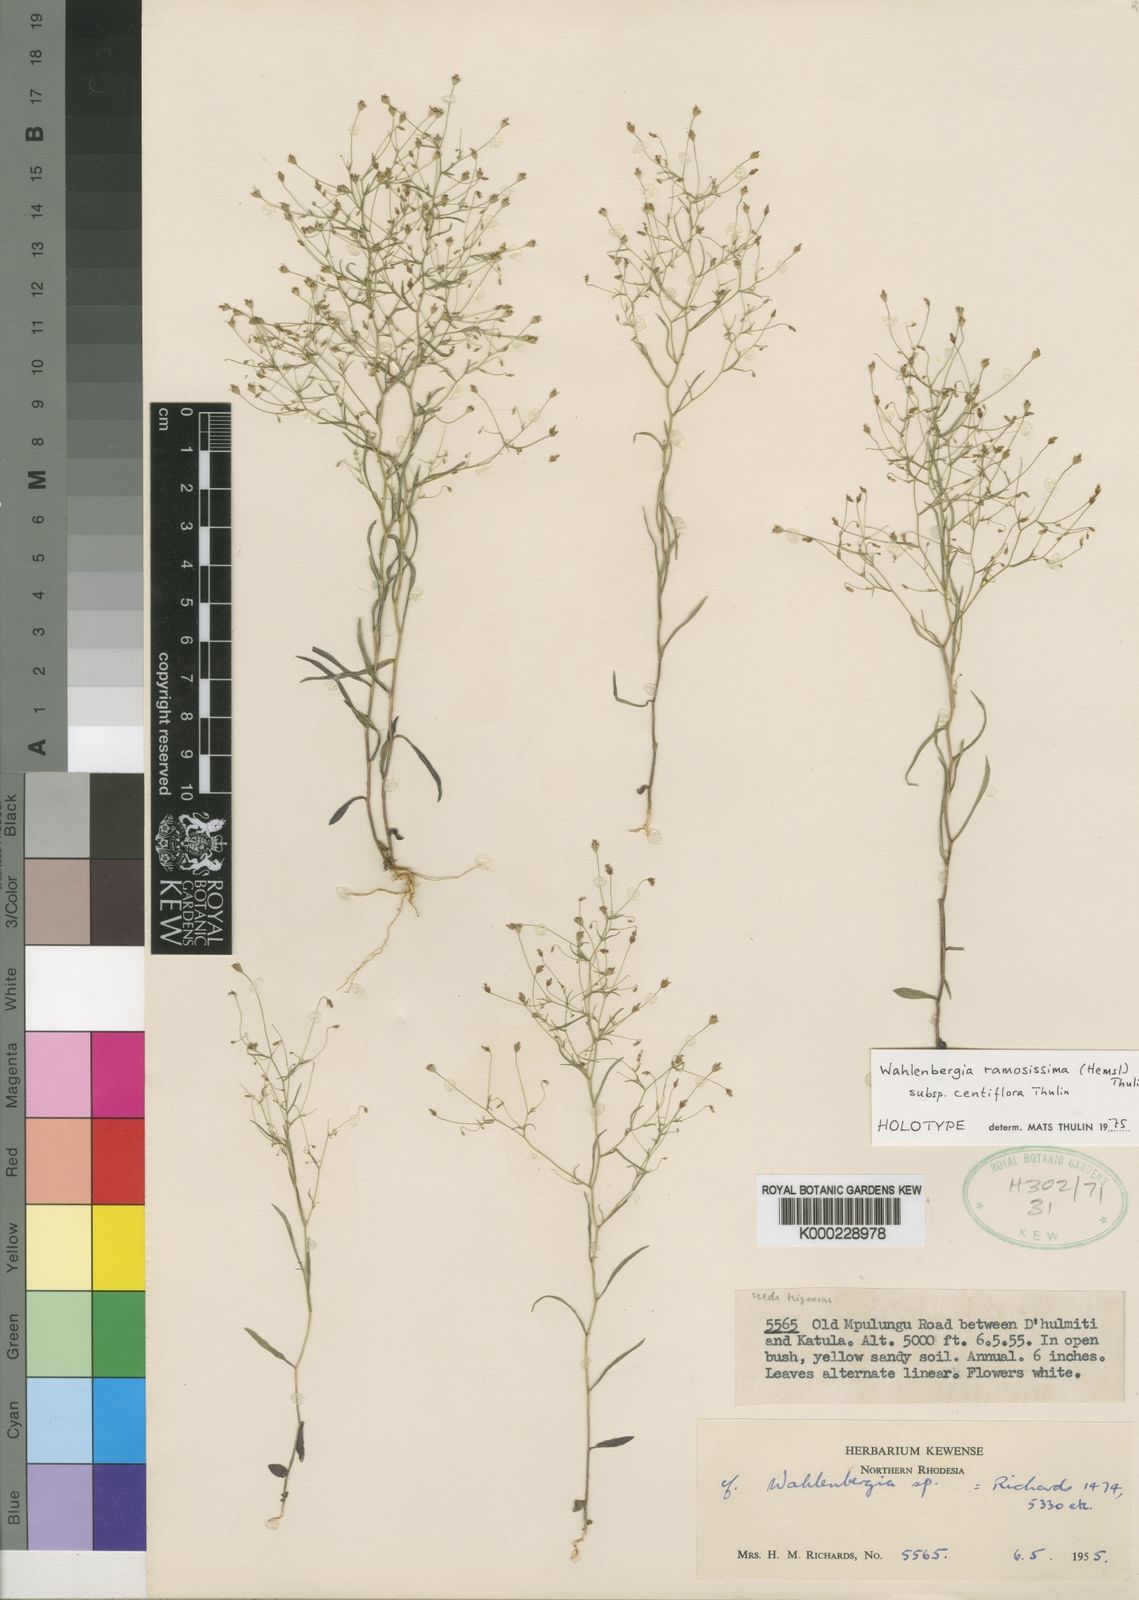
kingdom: Plantae
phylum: Tracheophyta
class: Magnoliopsida
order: Asterales
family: Campanulaceae
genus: Wahlenbergia
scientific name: Wahlenbergia ramosissima
